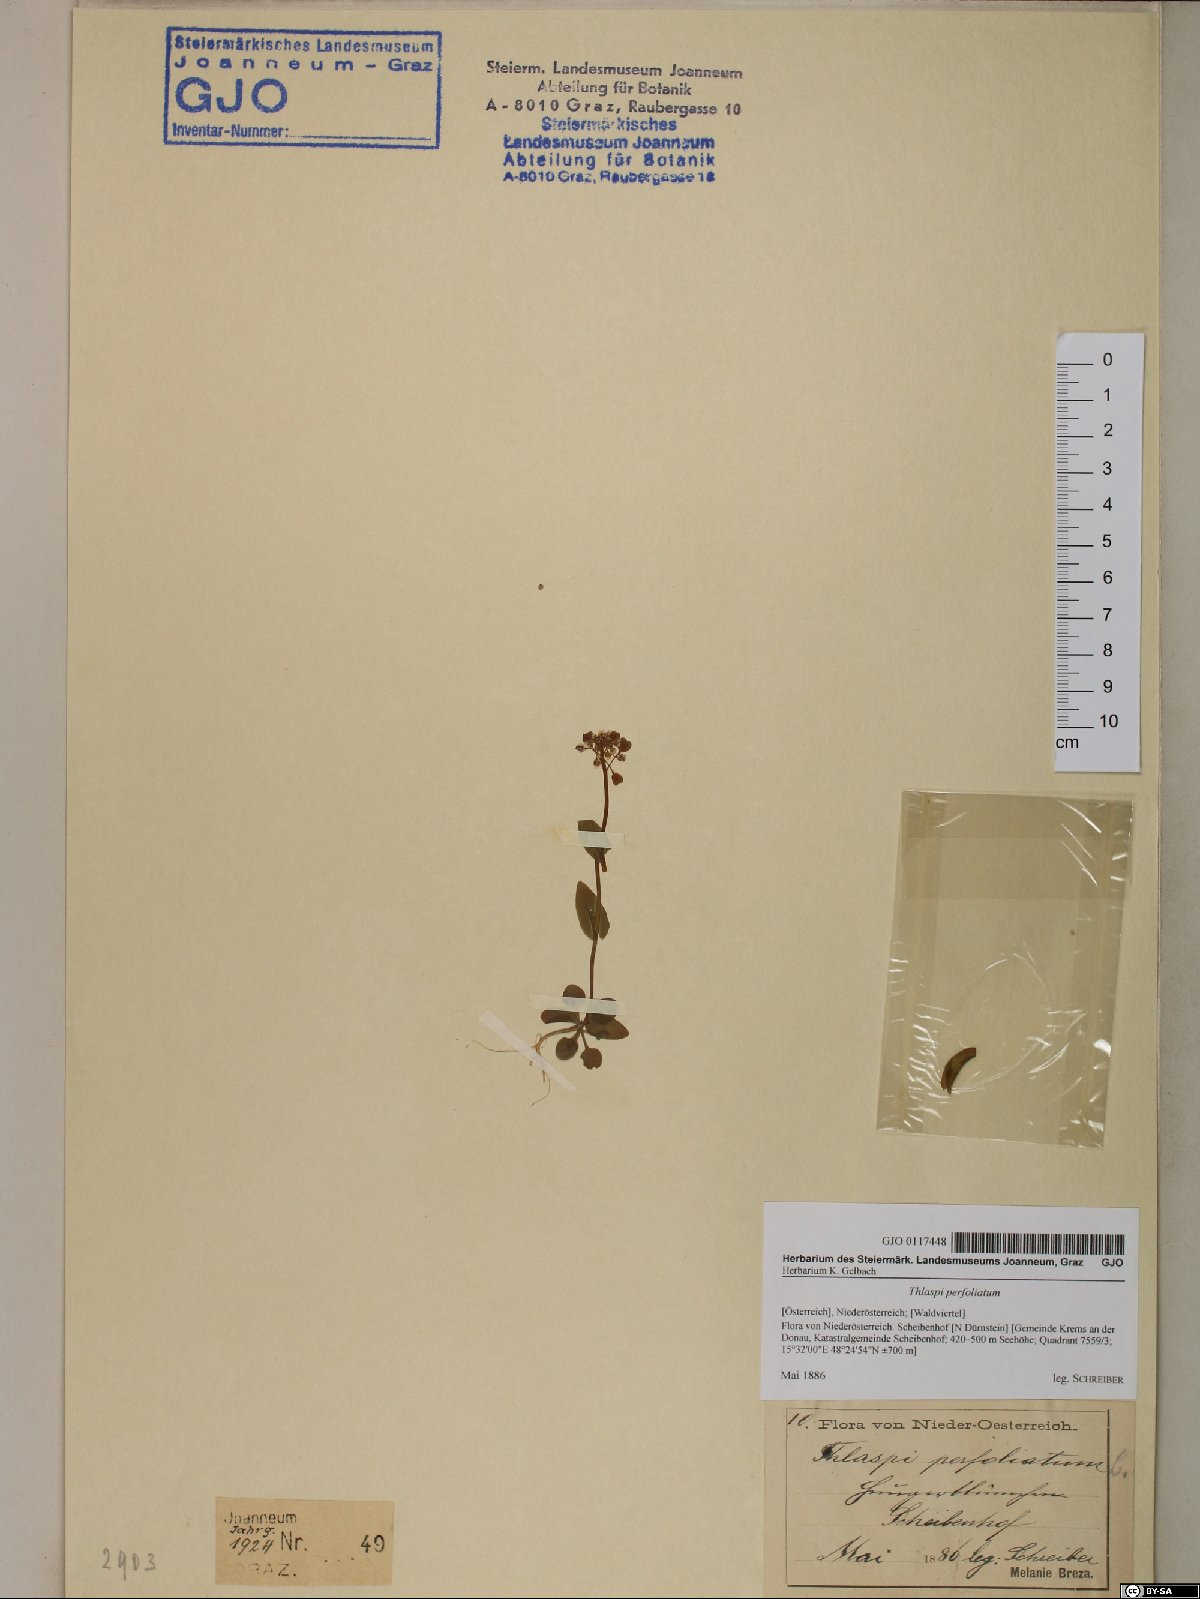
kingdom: Plantae
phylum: Tracheophyta
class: Magnoliopsida
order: Brassicales
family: Brassicaceae
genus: Noccaea
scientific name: Noccaea perfoliata
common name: Perfoliate pennycress
